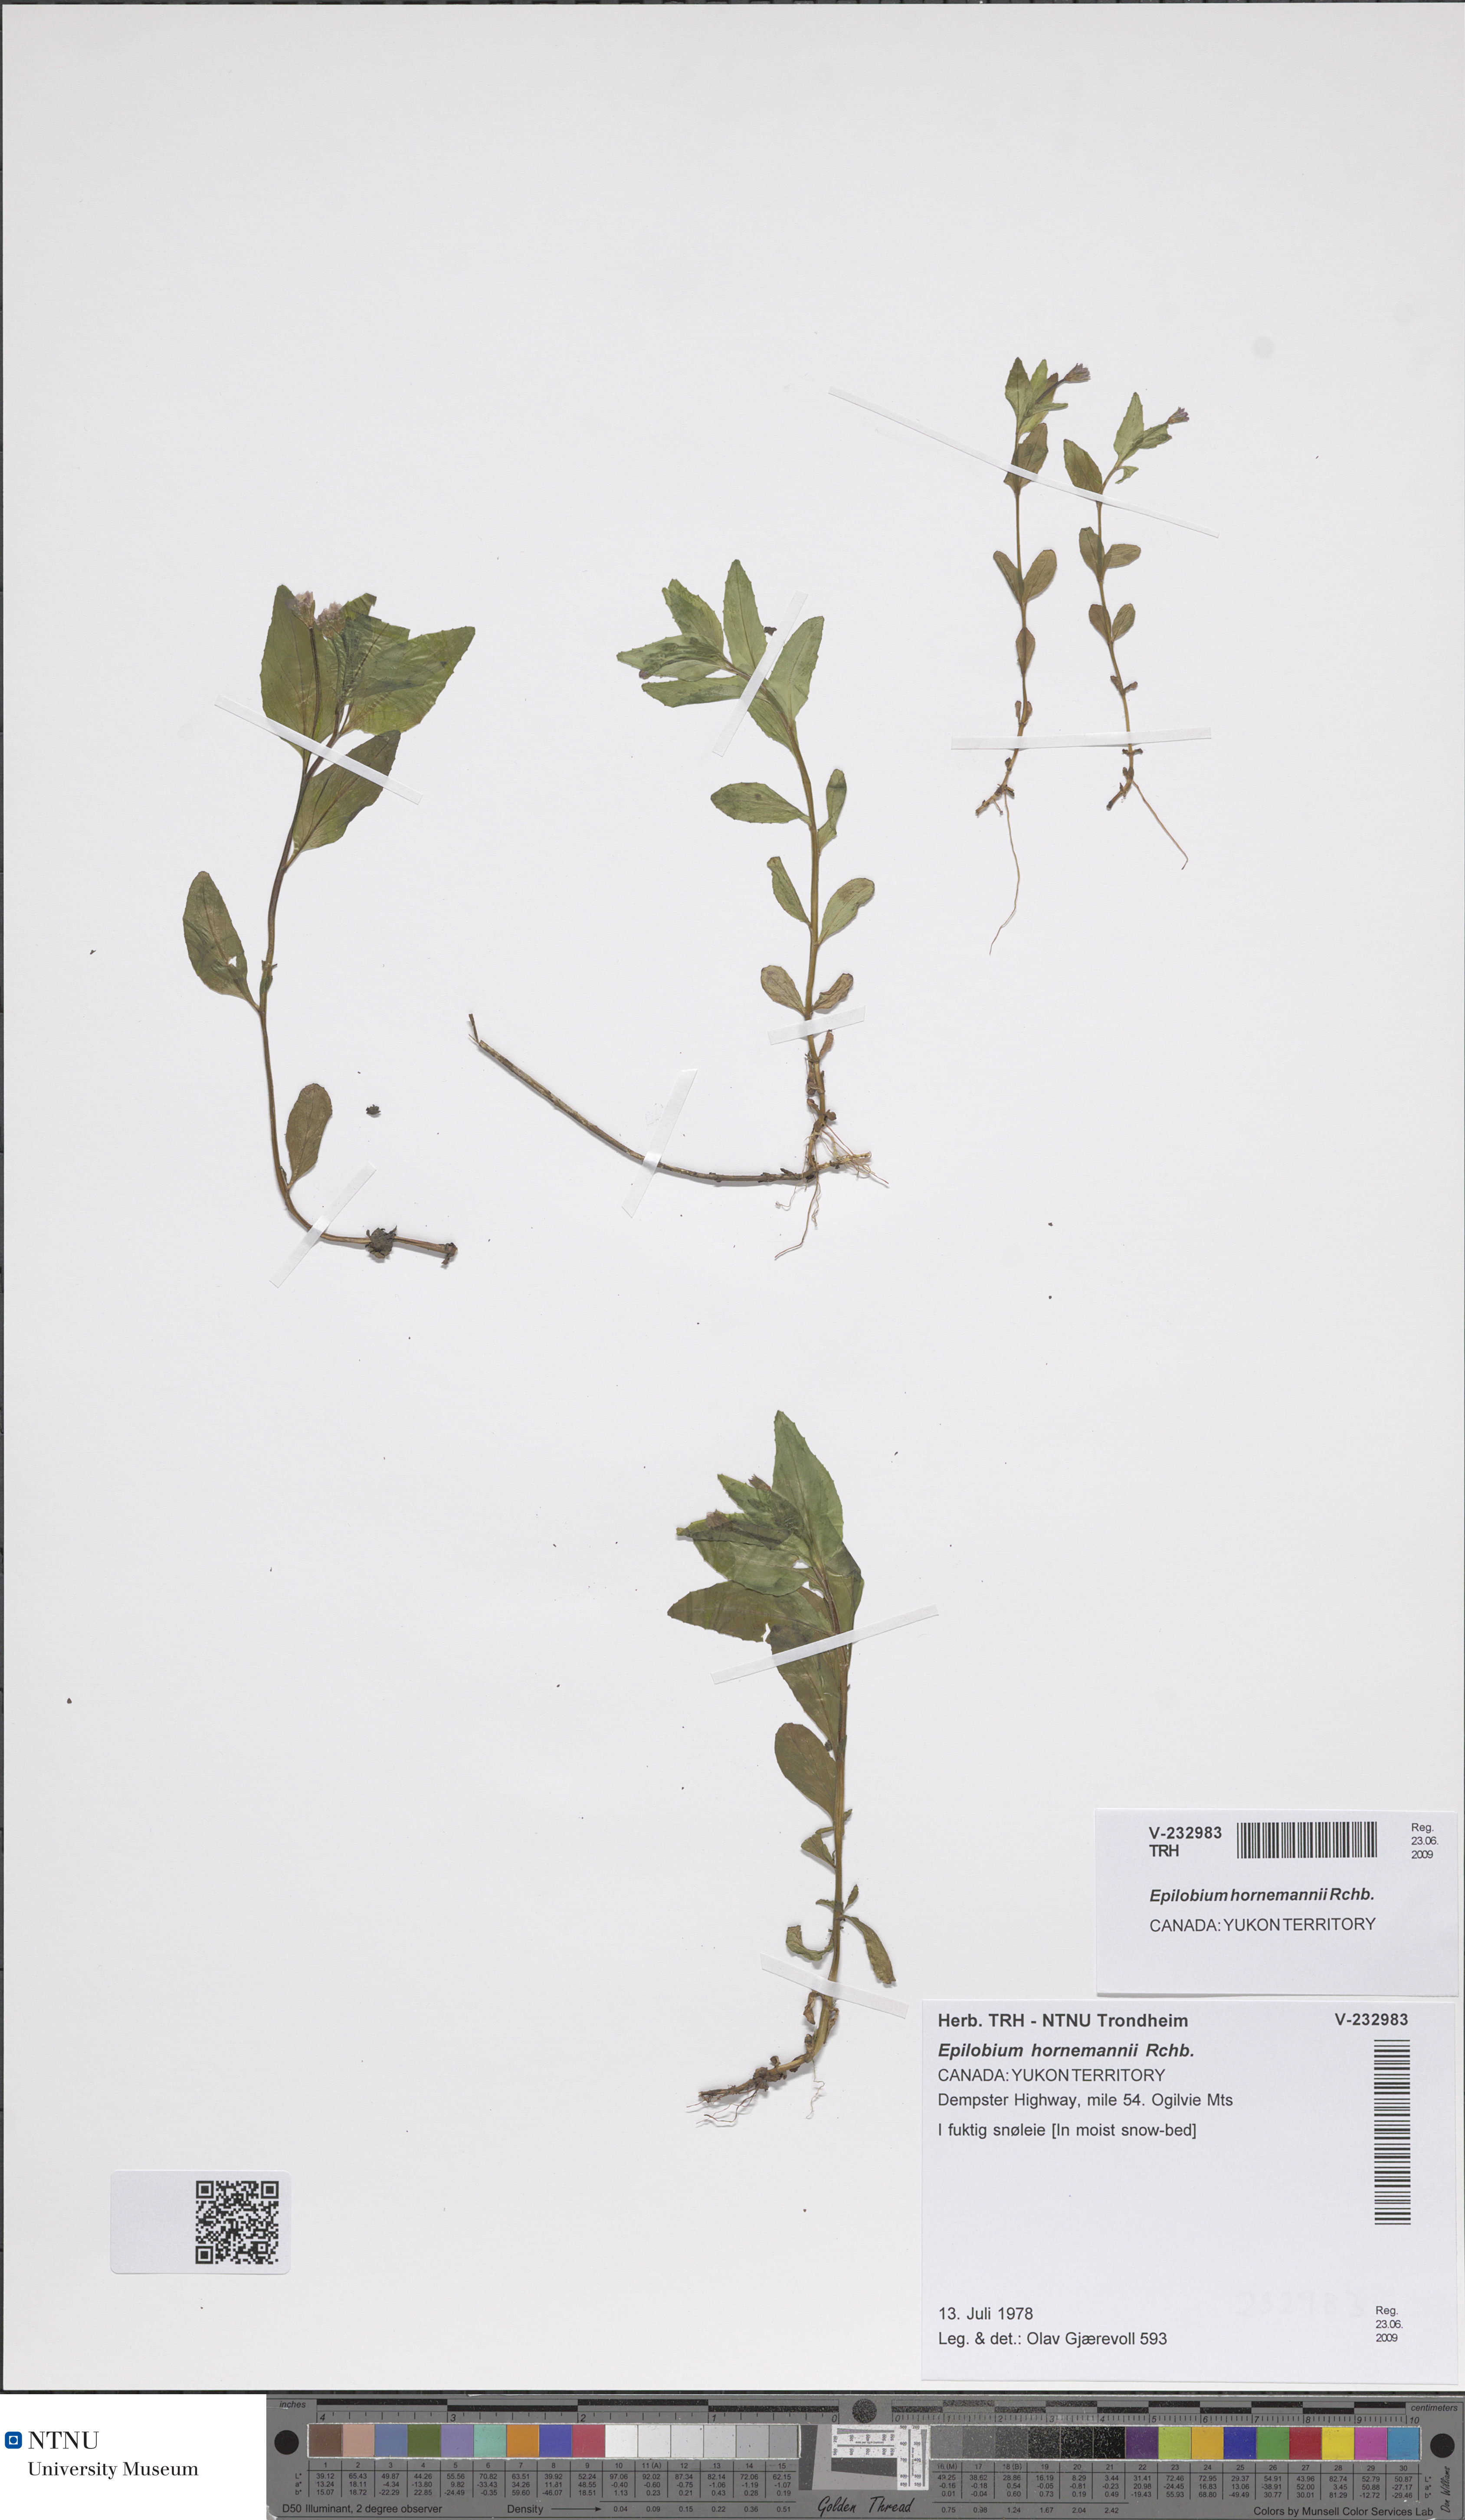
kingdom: Plantae
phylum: Tracheophyta
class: Magnoliopsida
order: Myrtales
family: Onagraceae
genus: Epilobium
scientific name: Epilobium hornemannii
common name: Hornemann's willowherb
